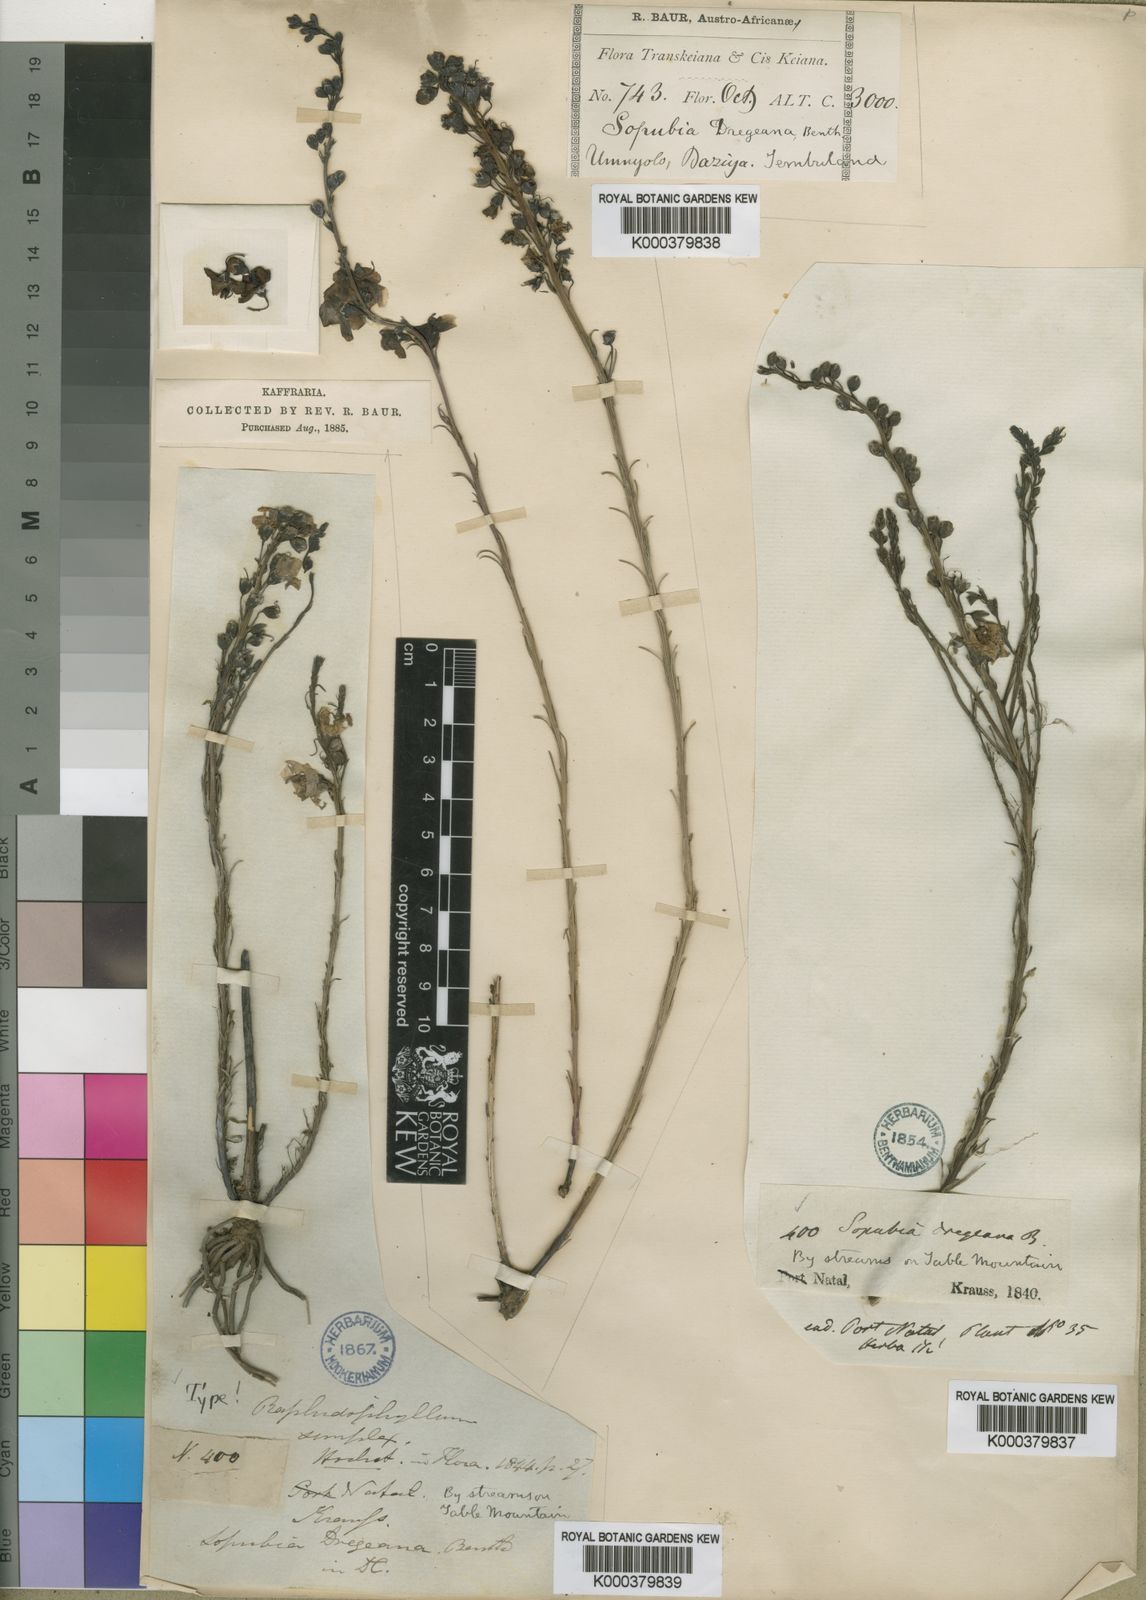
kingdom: Plantae
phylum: Tracheophyta
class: Magnoliopsida
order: Lamiales
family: Orobanchaceae
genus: Sopubia
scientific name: Sopubia simplex
